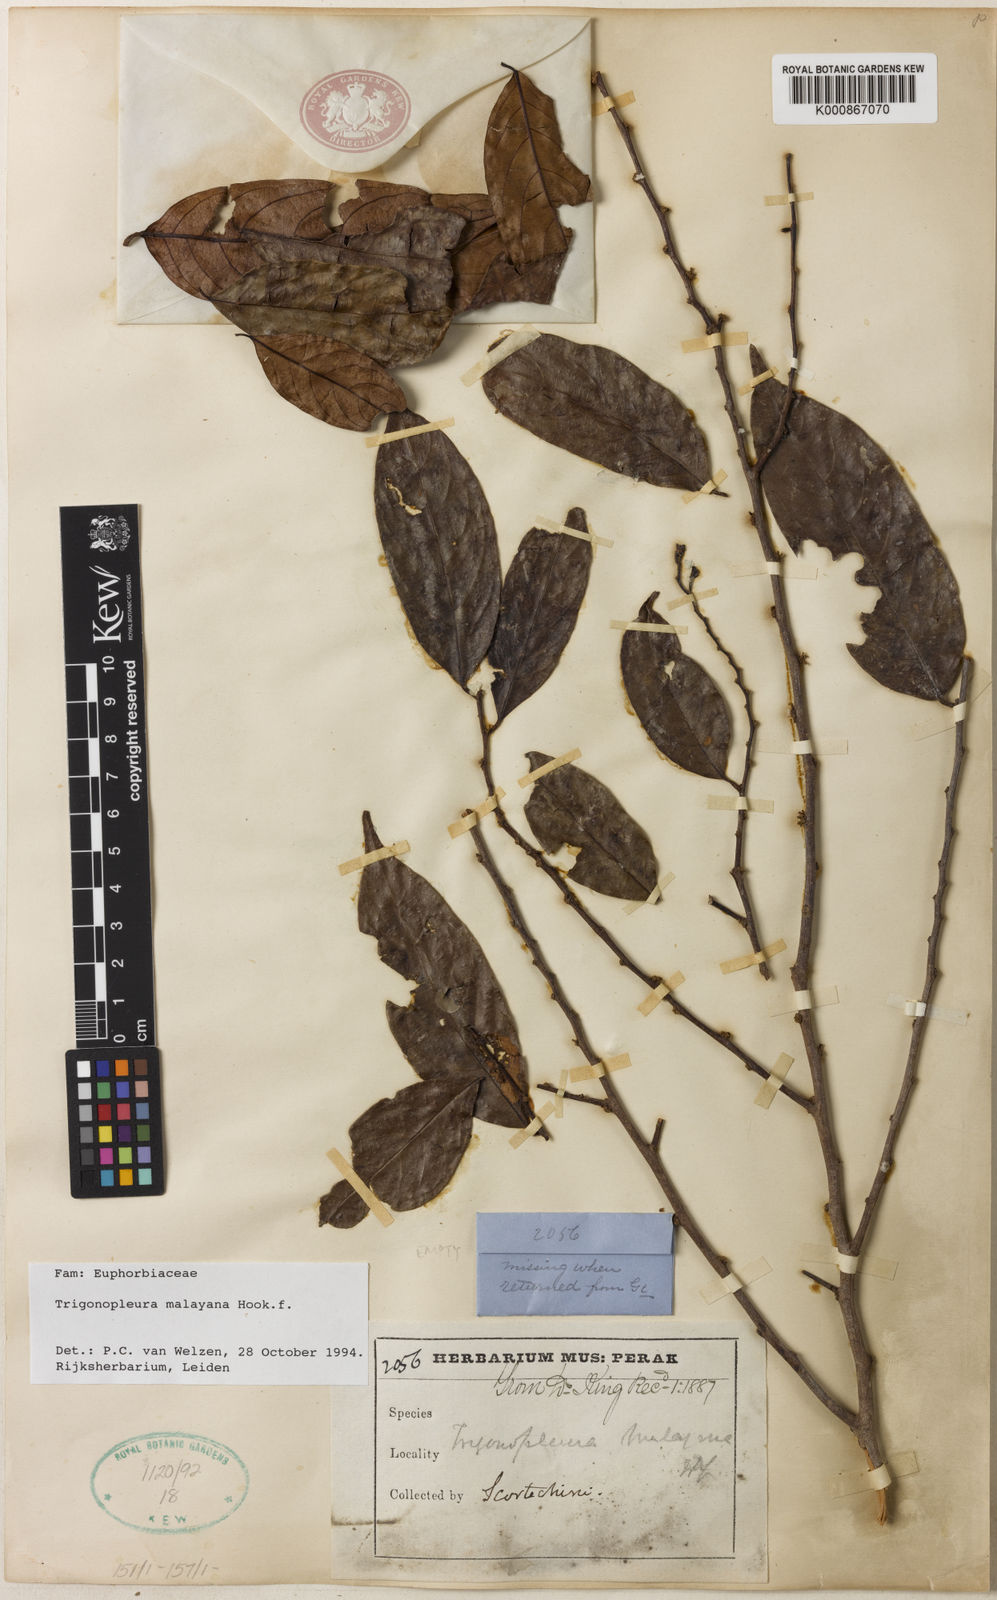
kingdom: Plantae
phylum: Tracheophyta
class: Magnoliopsida
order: Malpighiales
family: Peraceae
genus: Trigonopleura
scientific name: Trigonopleura malayana
